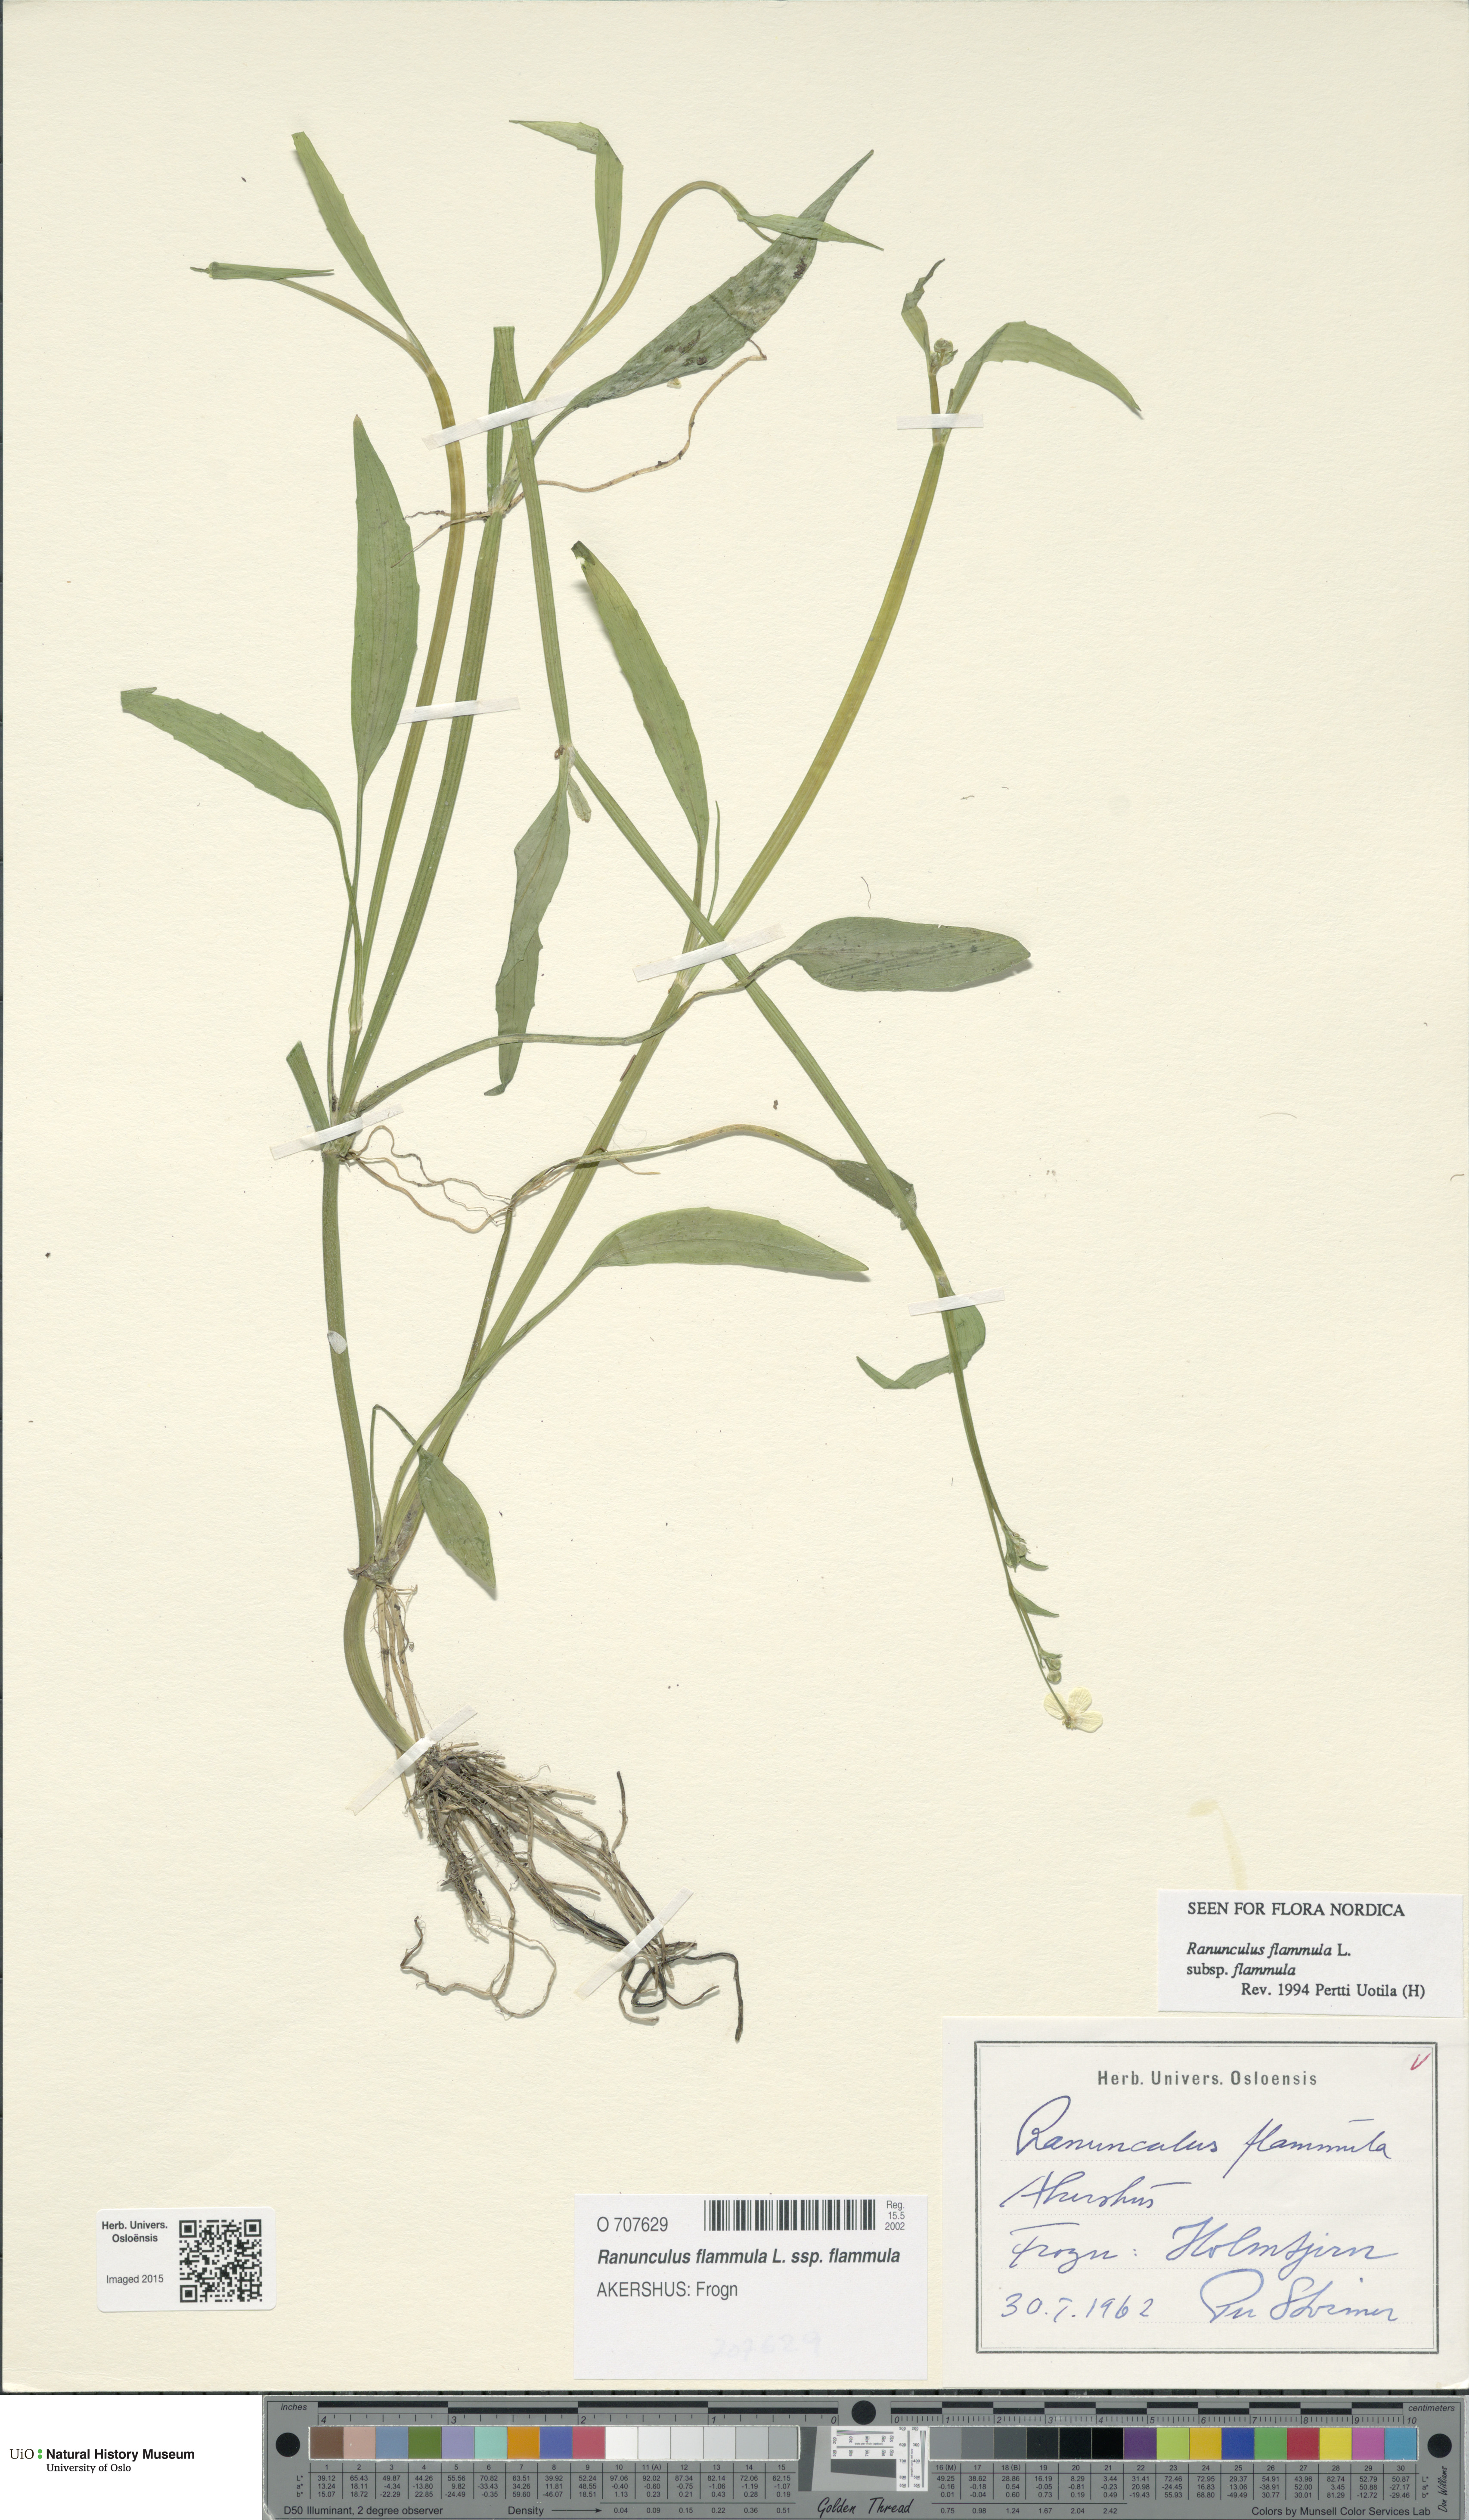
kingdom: Plantae
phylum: Tracheophyta
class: Magnoliopsida
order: Ranunculales
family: Ranunculaceae
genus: Ranunculus
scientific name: Ranunculus flammula
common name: Lesser spearwort
